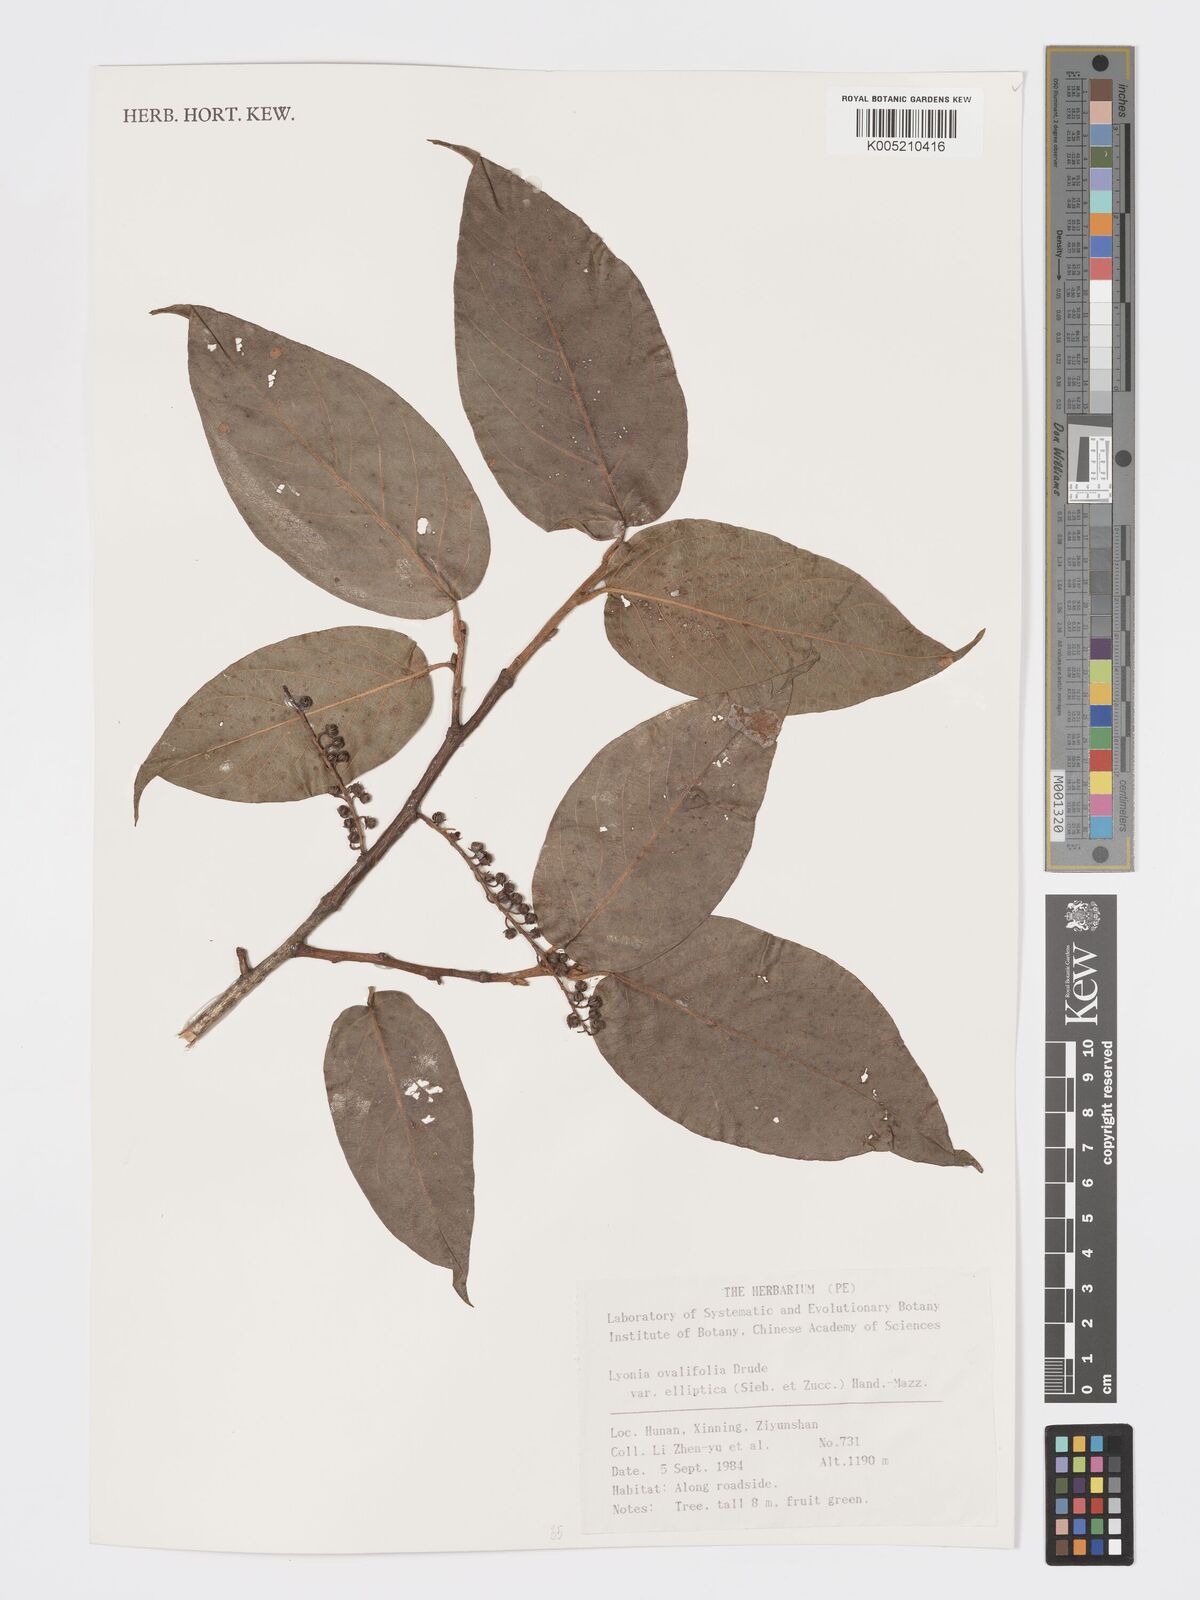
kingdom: Plantae
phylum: Tracheophyta
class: Magnoliopsida
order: Ericales
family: Ericaceae
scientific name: Ericaceae
